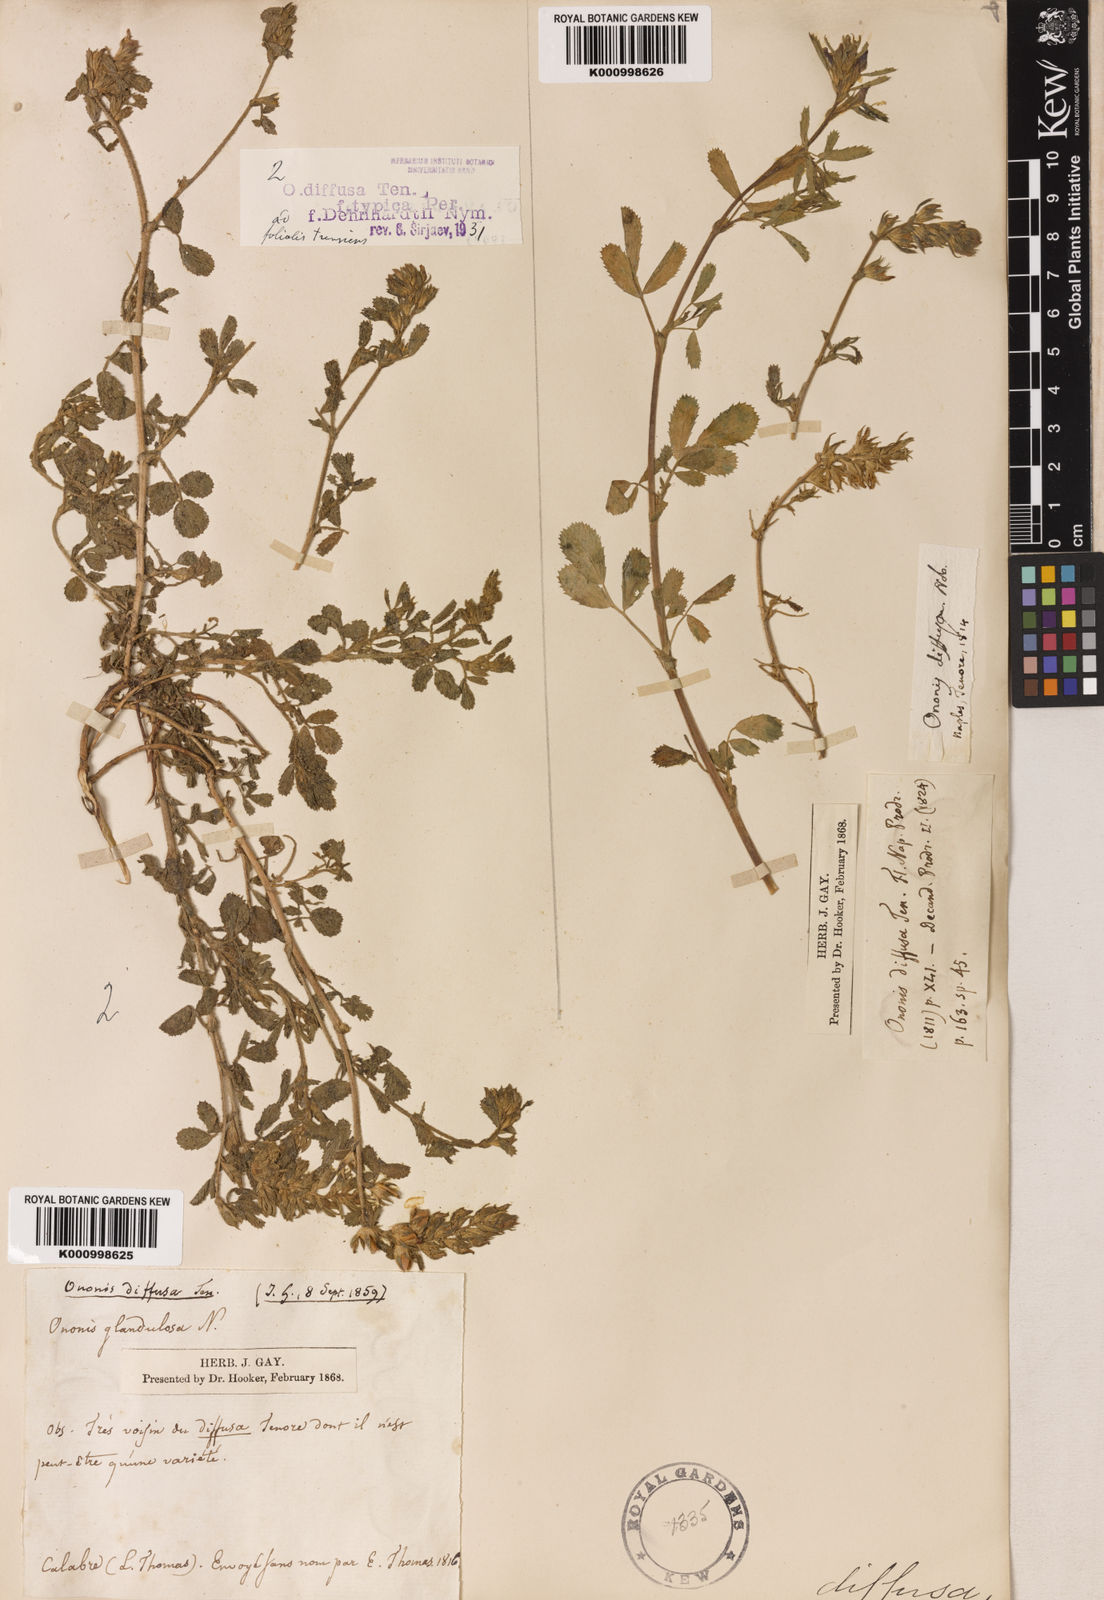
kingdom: Plantae
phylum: Tracheophyta
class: Magnoliopsida
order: Fabales
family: Fabaceae
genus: Ononis
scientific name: Ononis diffusa
